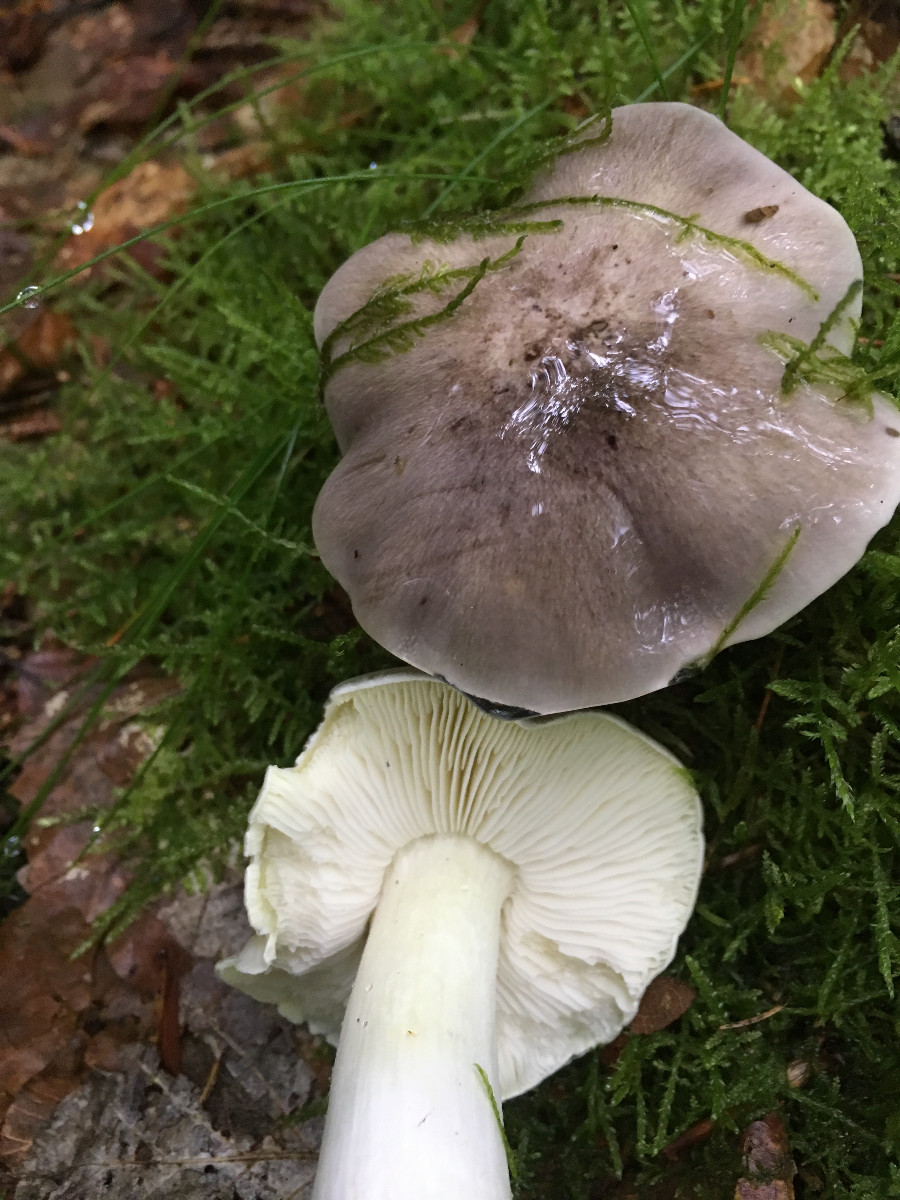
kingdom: Fungi
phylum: Basidiomycota
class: Agaricomycetes
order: Agaricales
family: Tricholomataceae
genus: Tricholoma
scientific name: Tricholoma portentosum
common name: grå ridderhat
